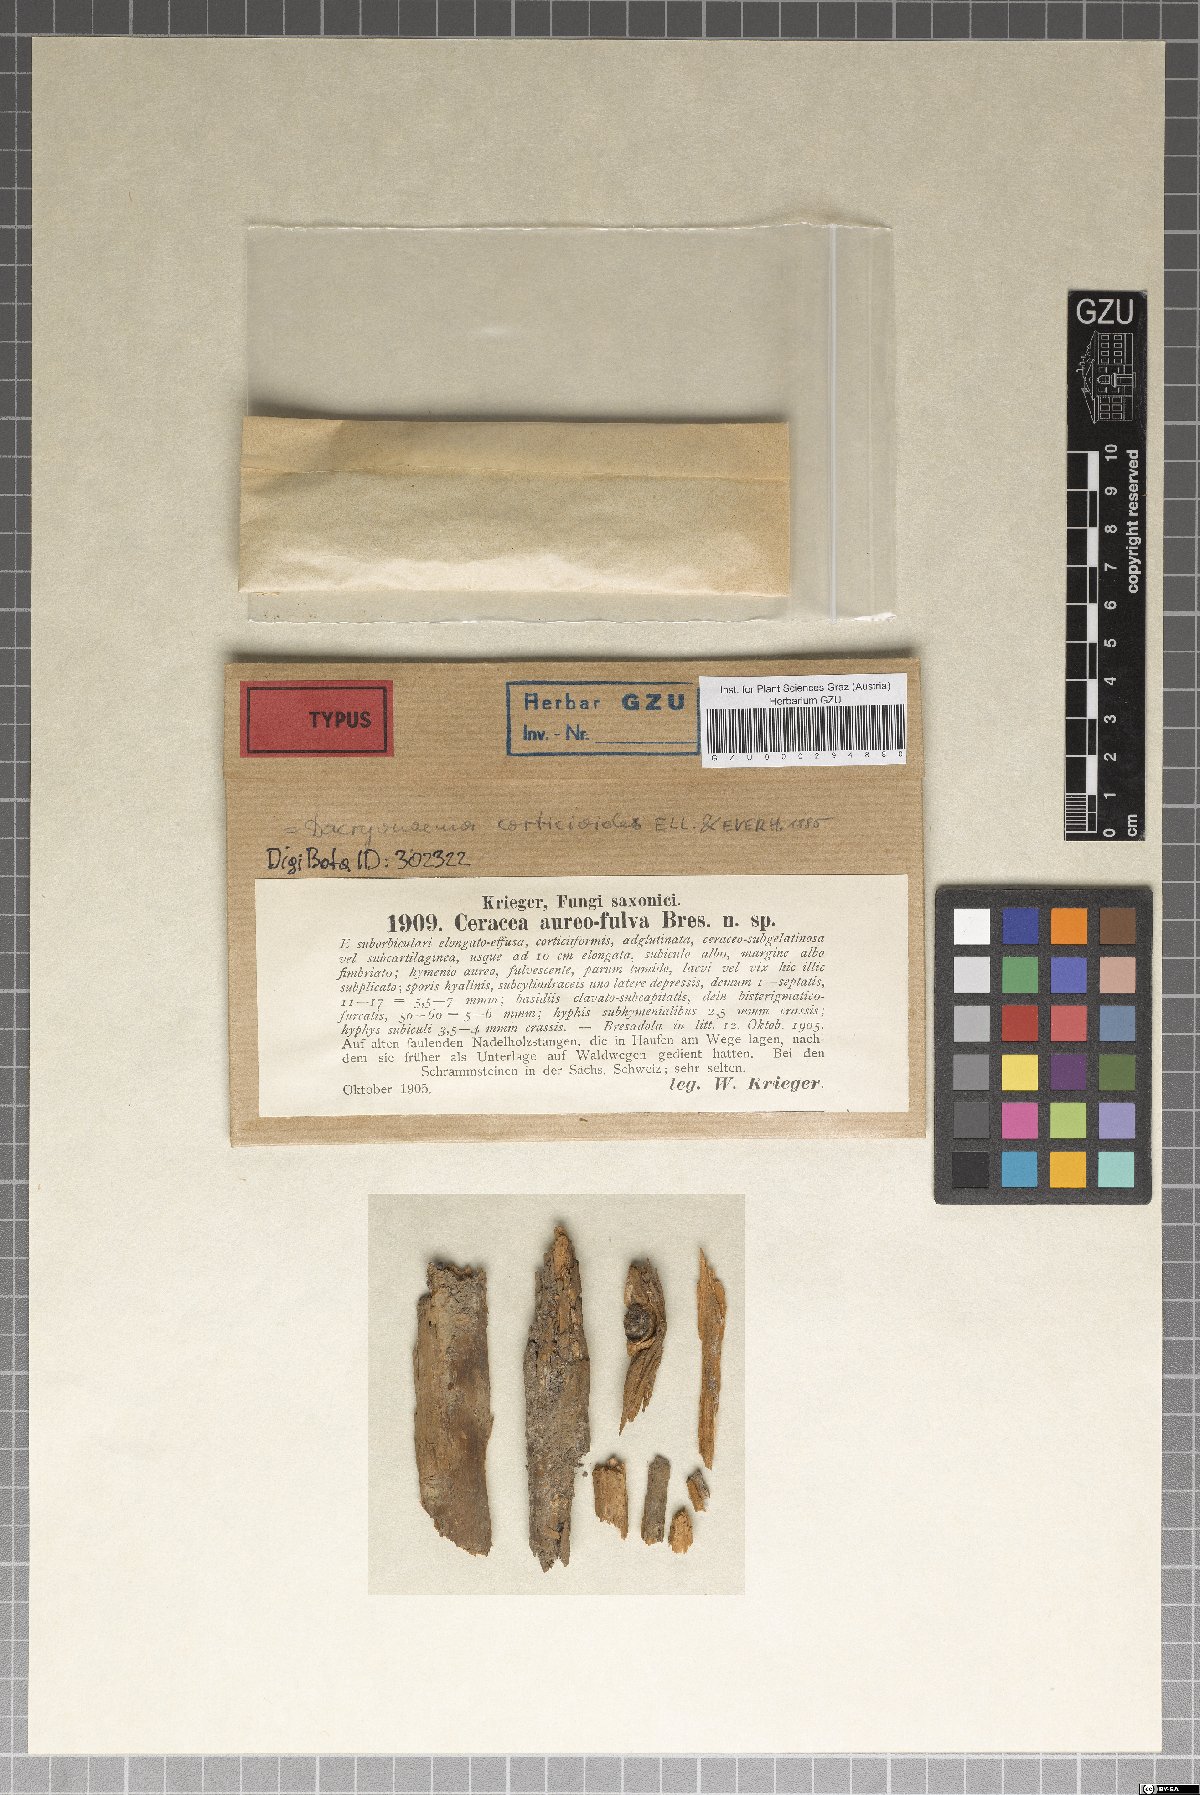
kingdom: Fungi
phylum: Basidiomycota
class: Agaricomycetes
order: Polyporales
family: Meruliaceae
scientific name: Meruliaceae
